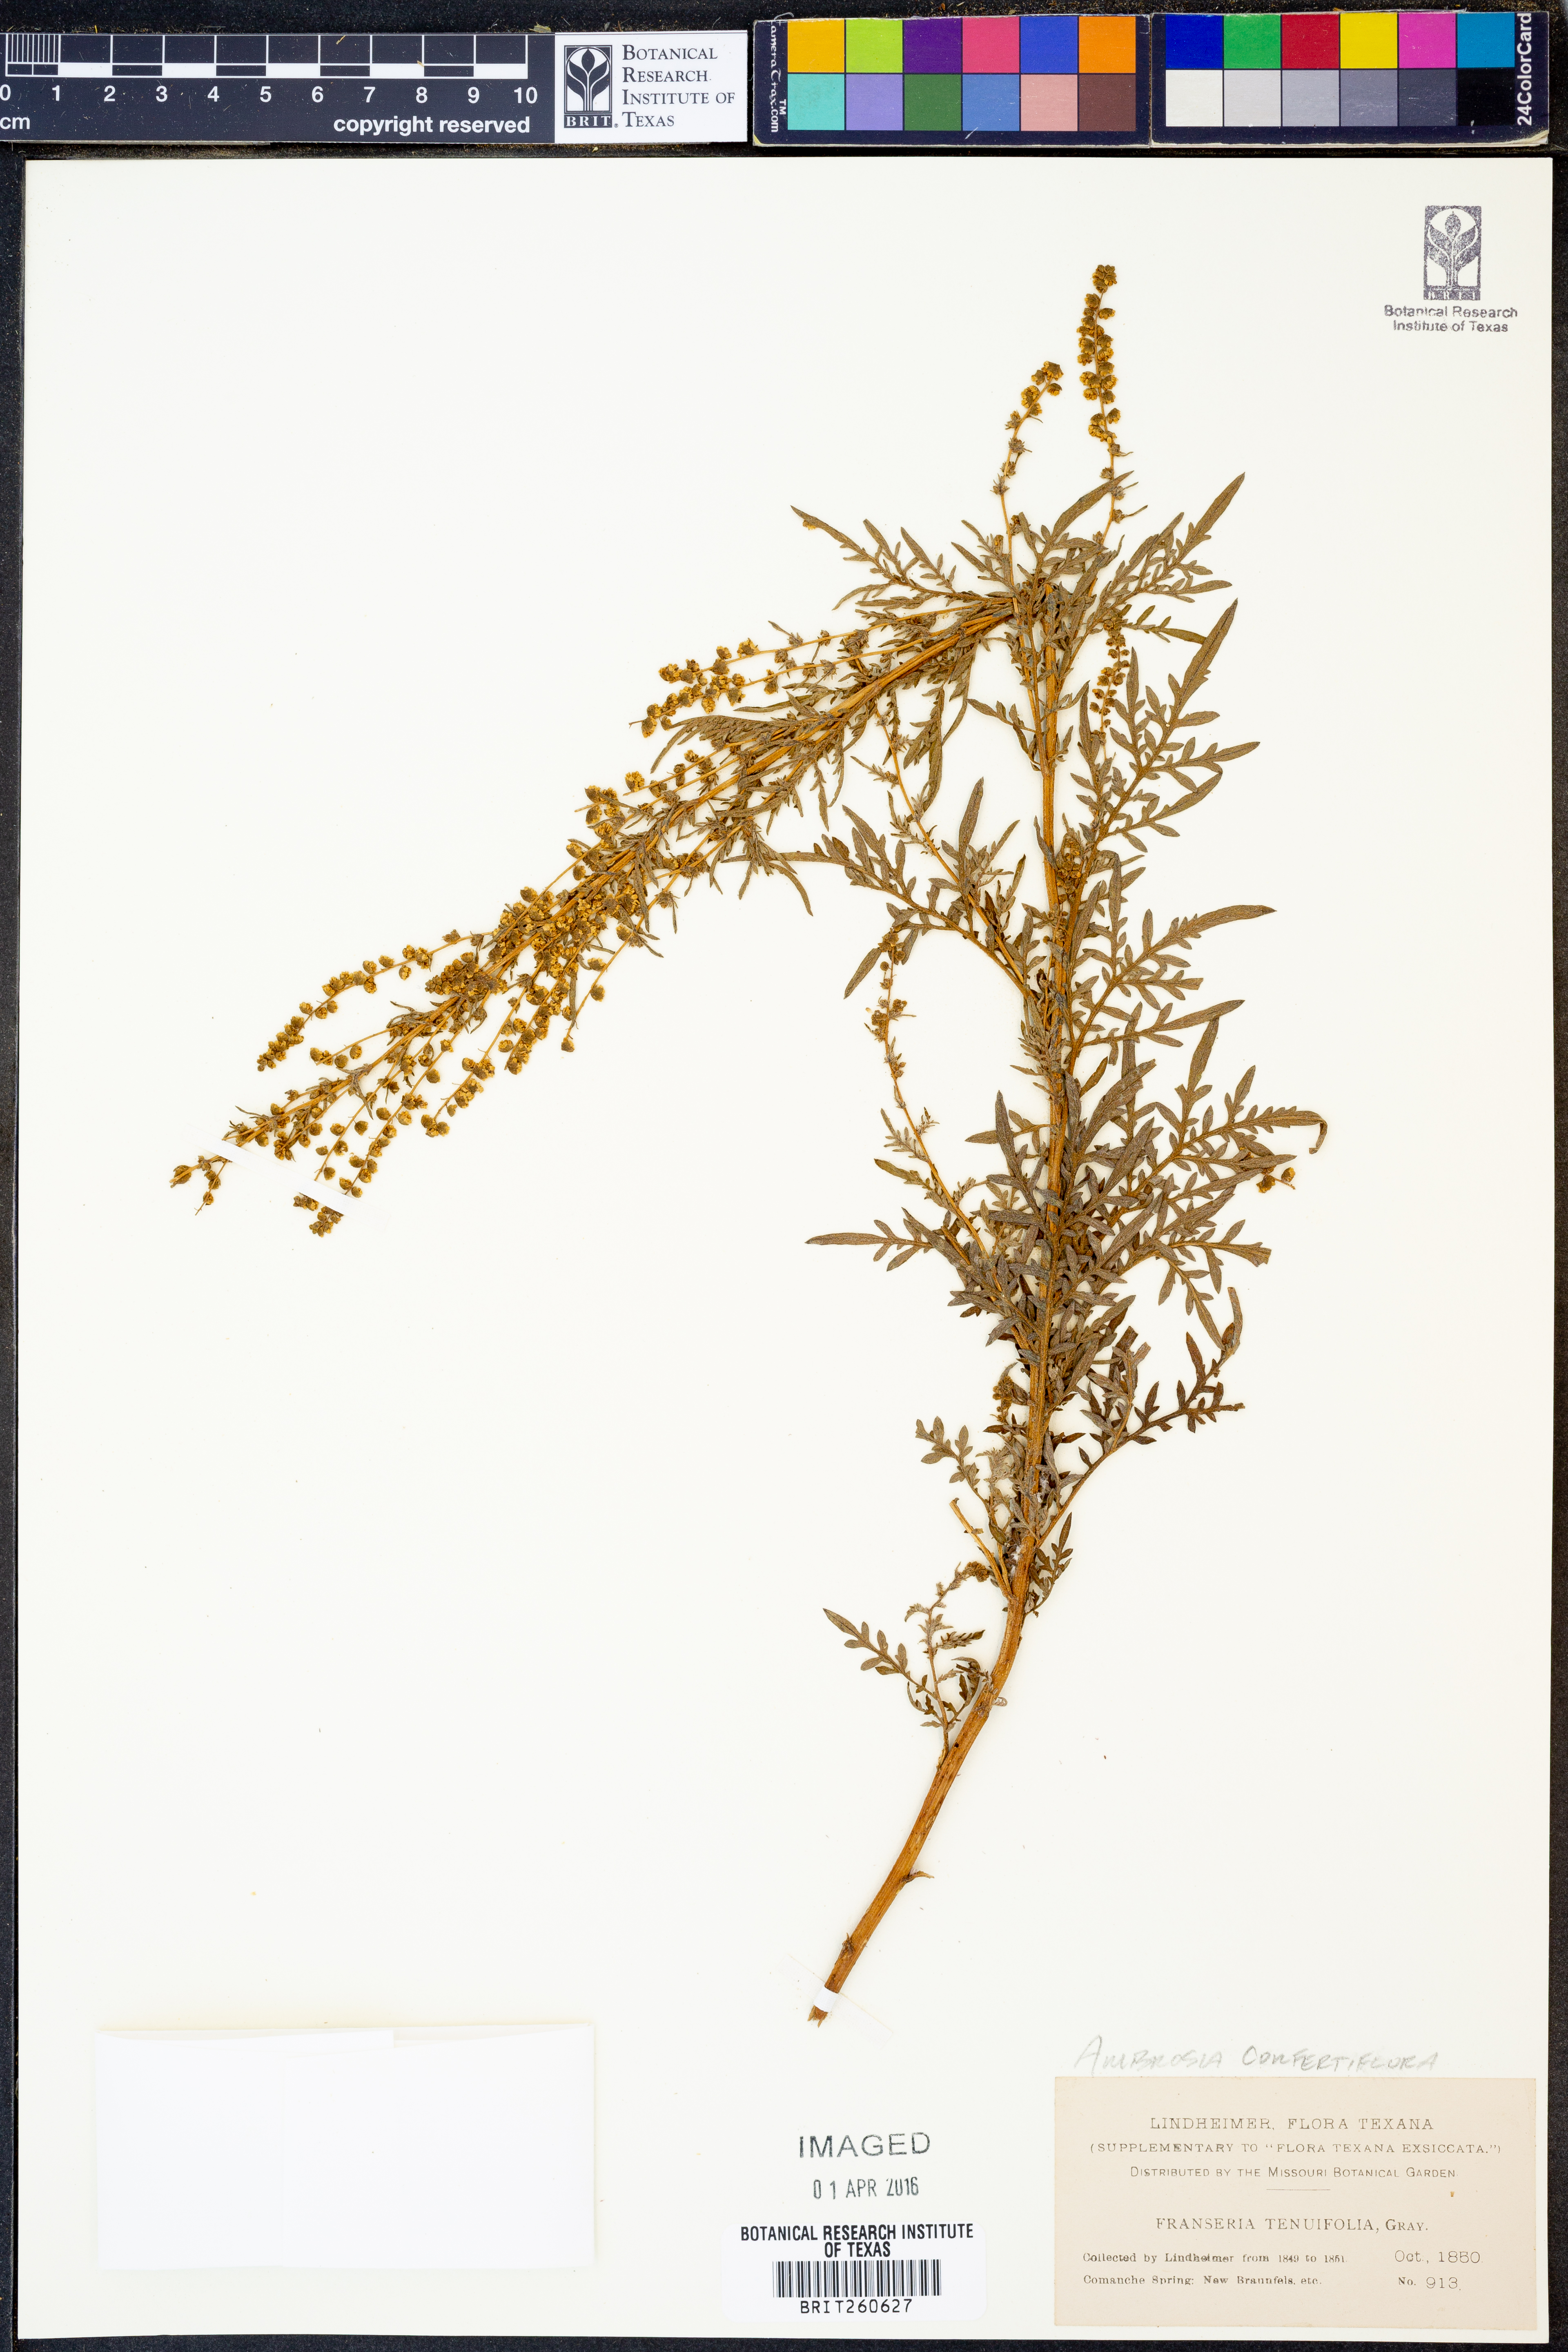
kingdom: Plantae
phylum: Tracheophyta
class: Magnoliopsida
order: Asterales
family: Asteraceae
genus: Ambrosia
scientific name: Ambrosia confertiflora
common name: Bur ragweed
